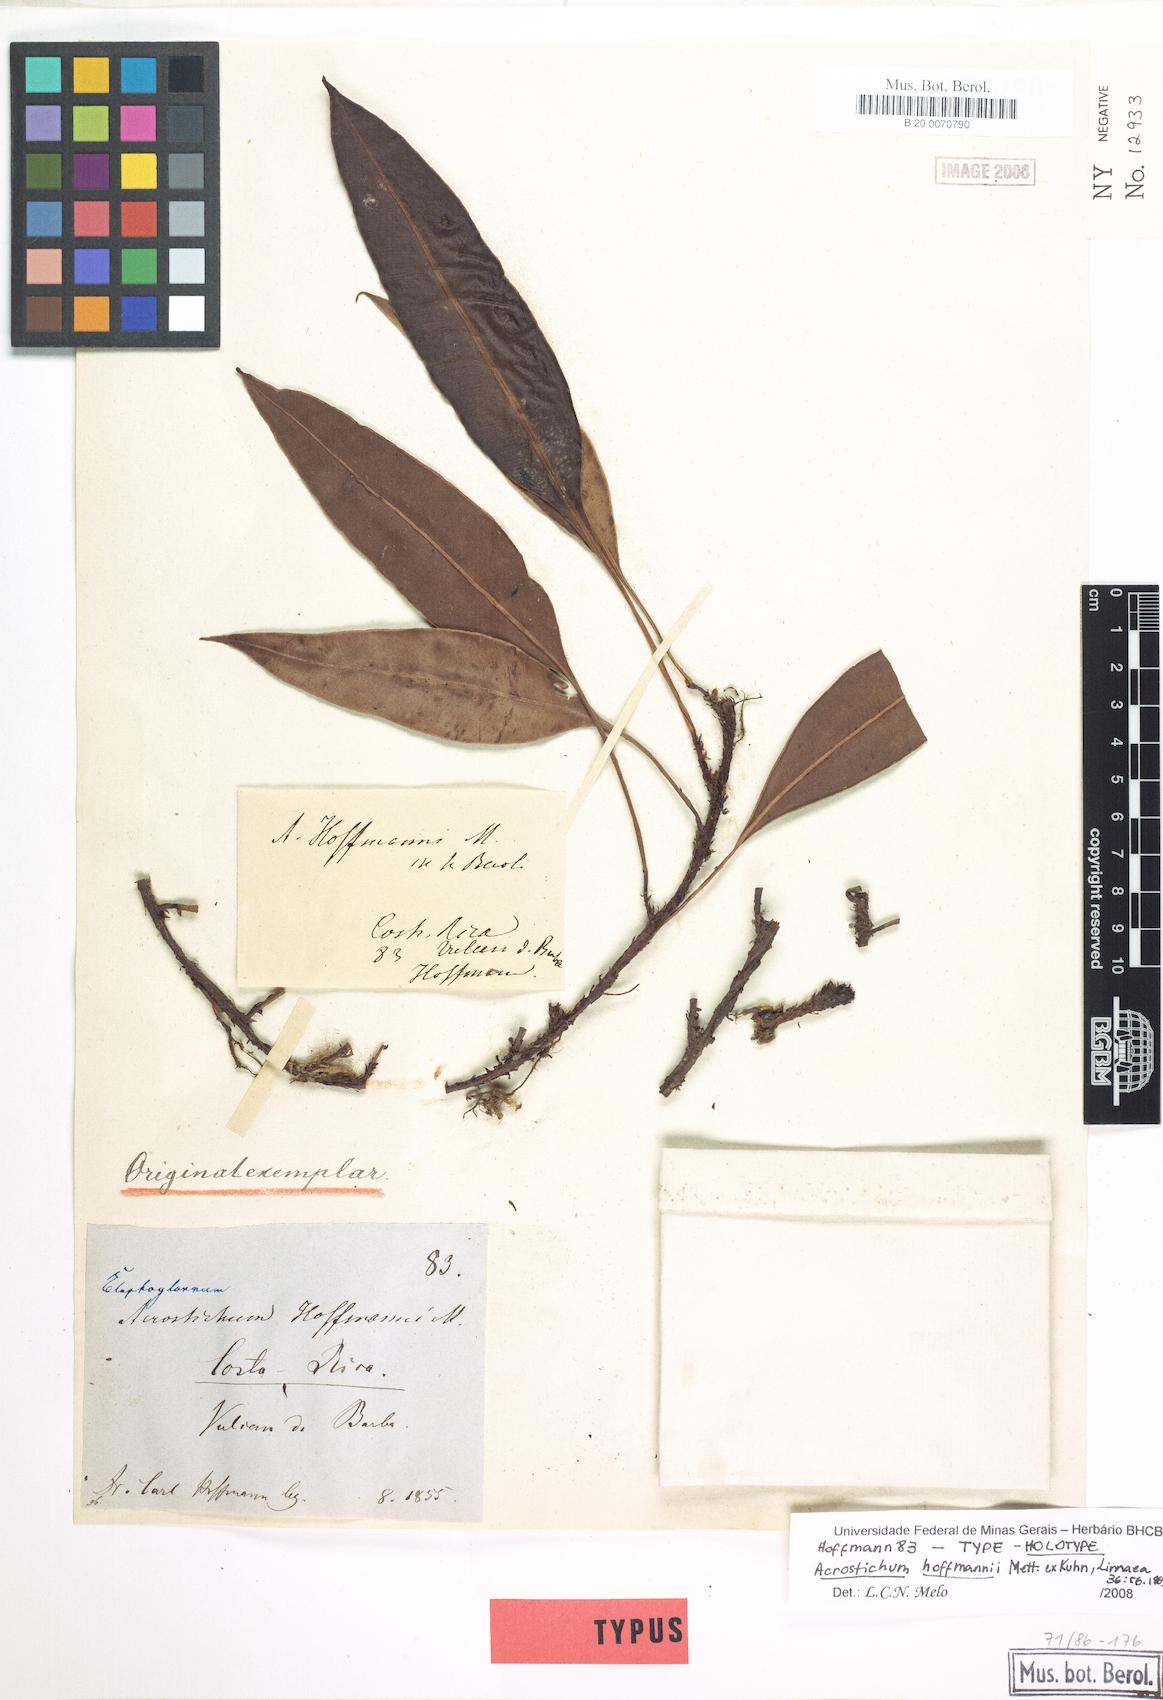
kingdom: Plantae
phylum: Tracheophyta
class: Polypodiopsida
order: Polypodiales
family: Dryopteridaceae
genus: Elaphoglossum
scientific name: Elaphoglossum hoffmannii
